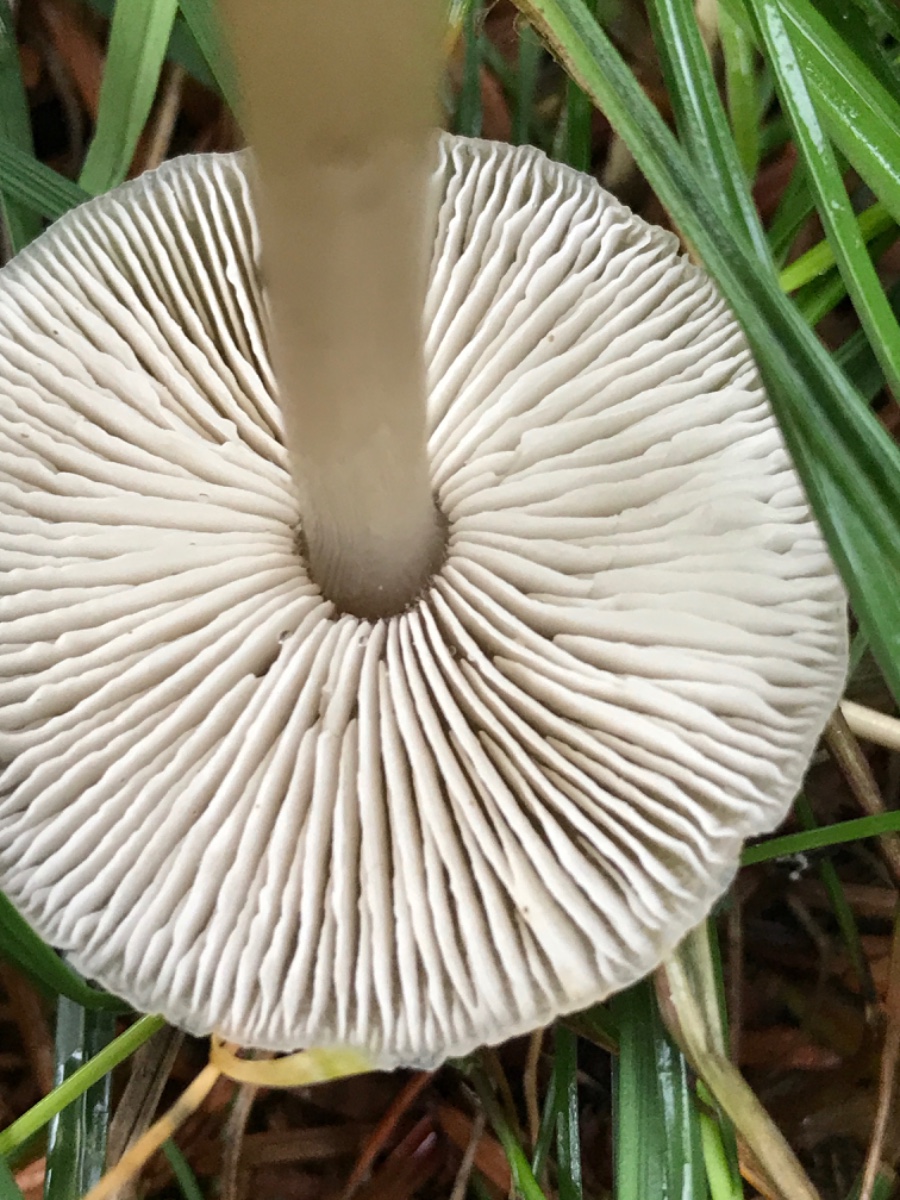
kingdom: Fungi
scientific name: Fungi
